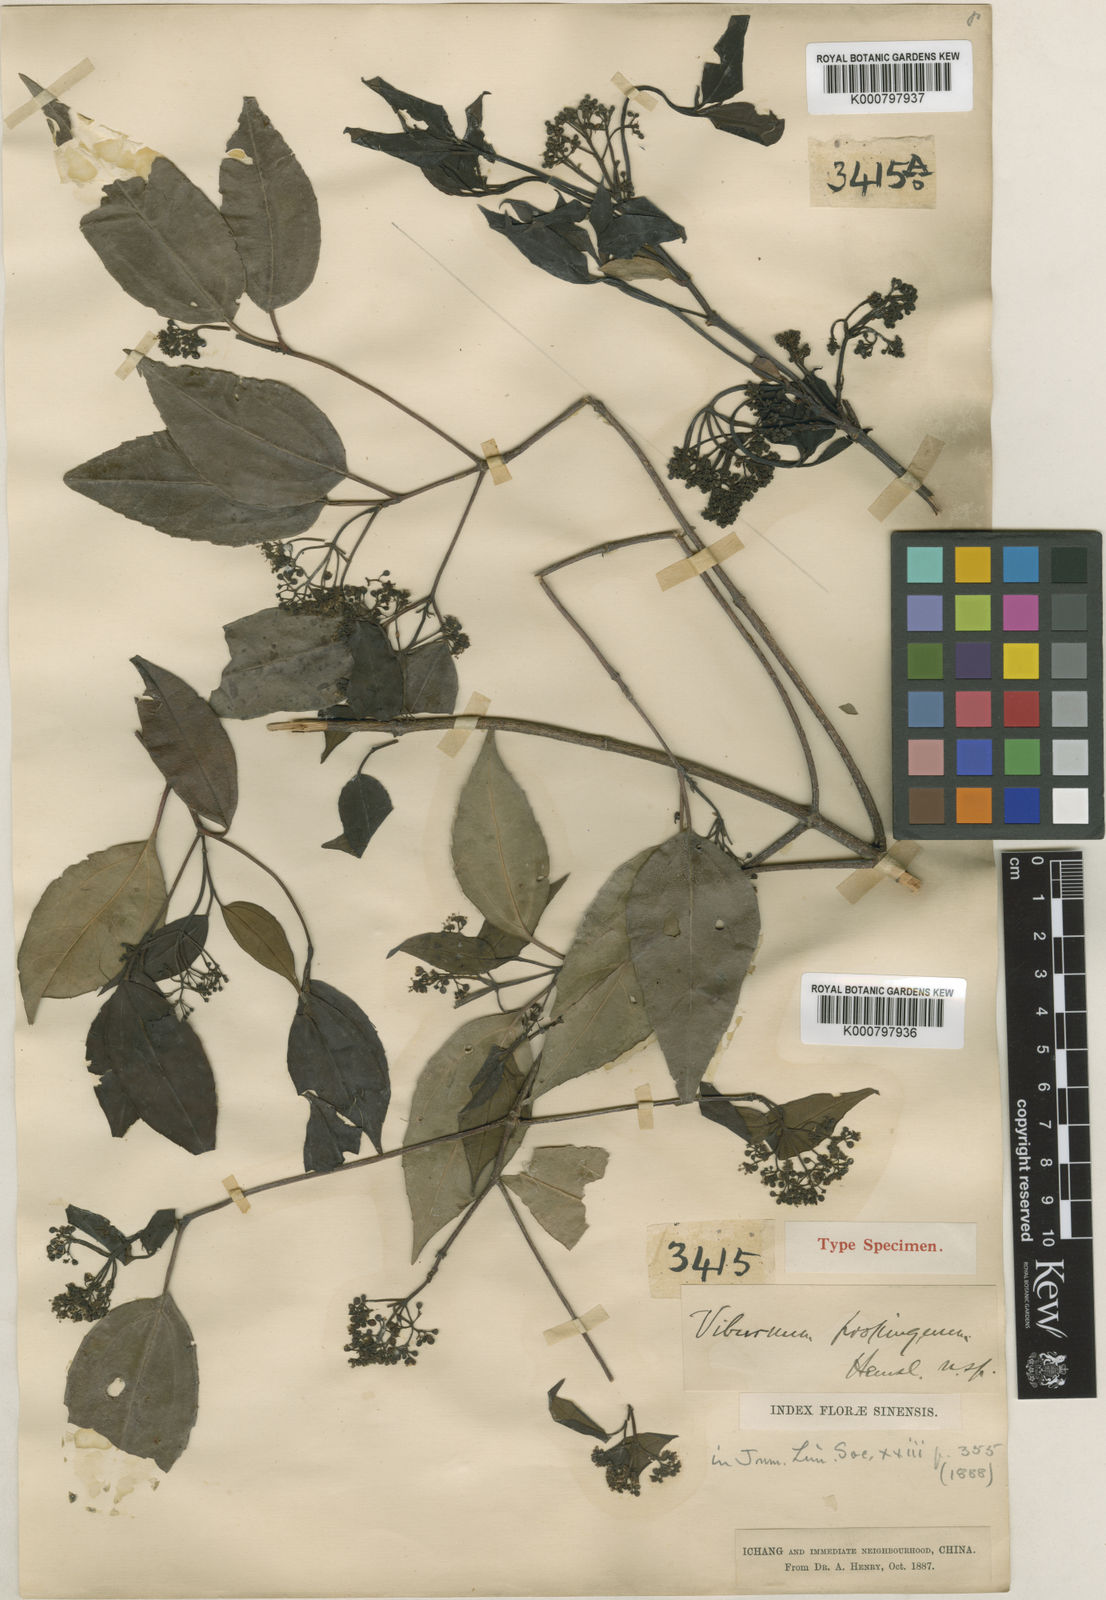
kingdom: Plantae
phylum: Tracheophyta
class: Magnoliopsida
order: Dipsacales
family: Viburnaceae
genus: Viburnum
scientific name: Viburnum propinquum
